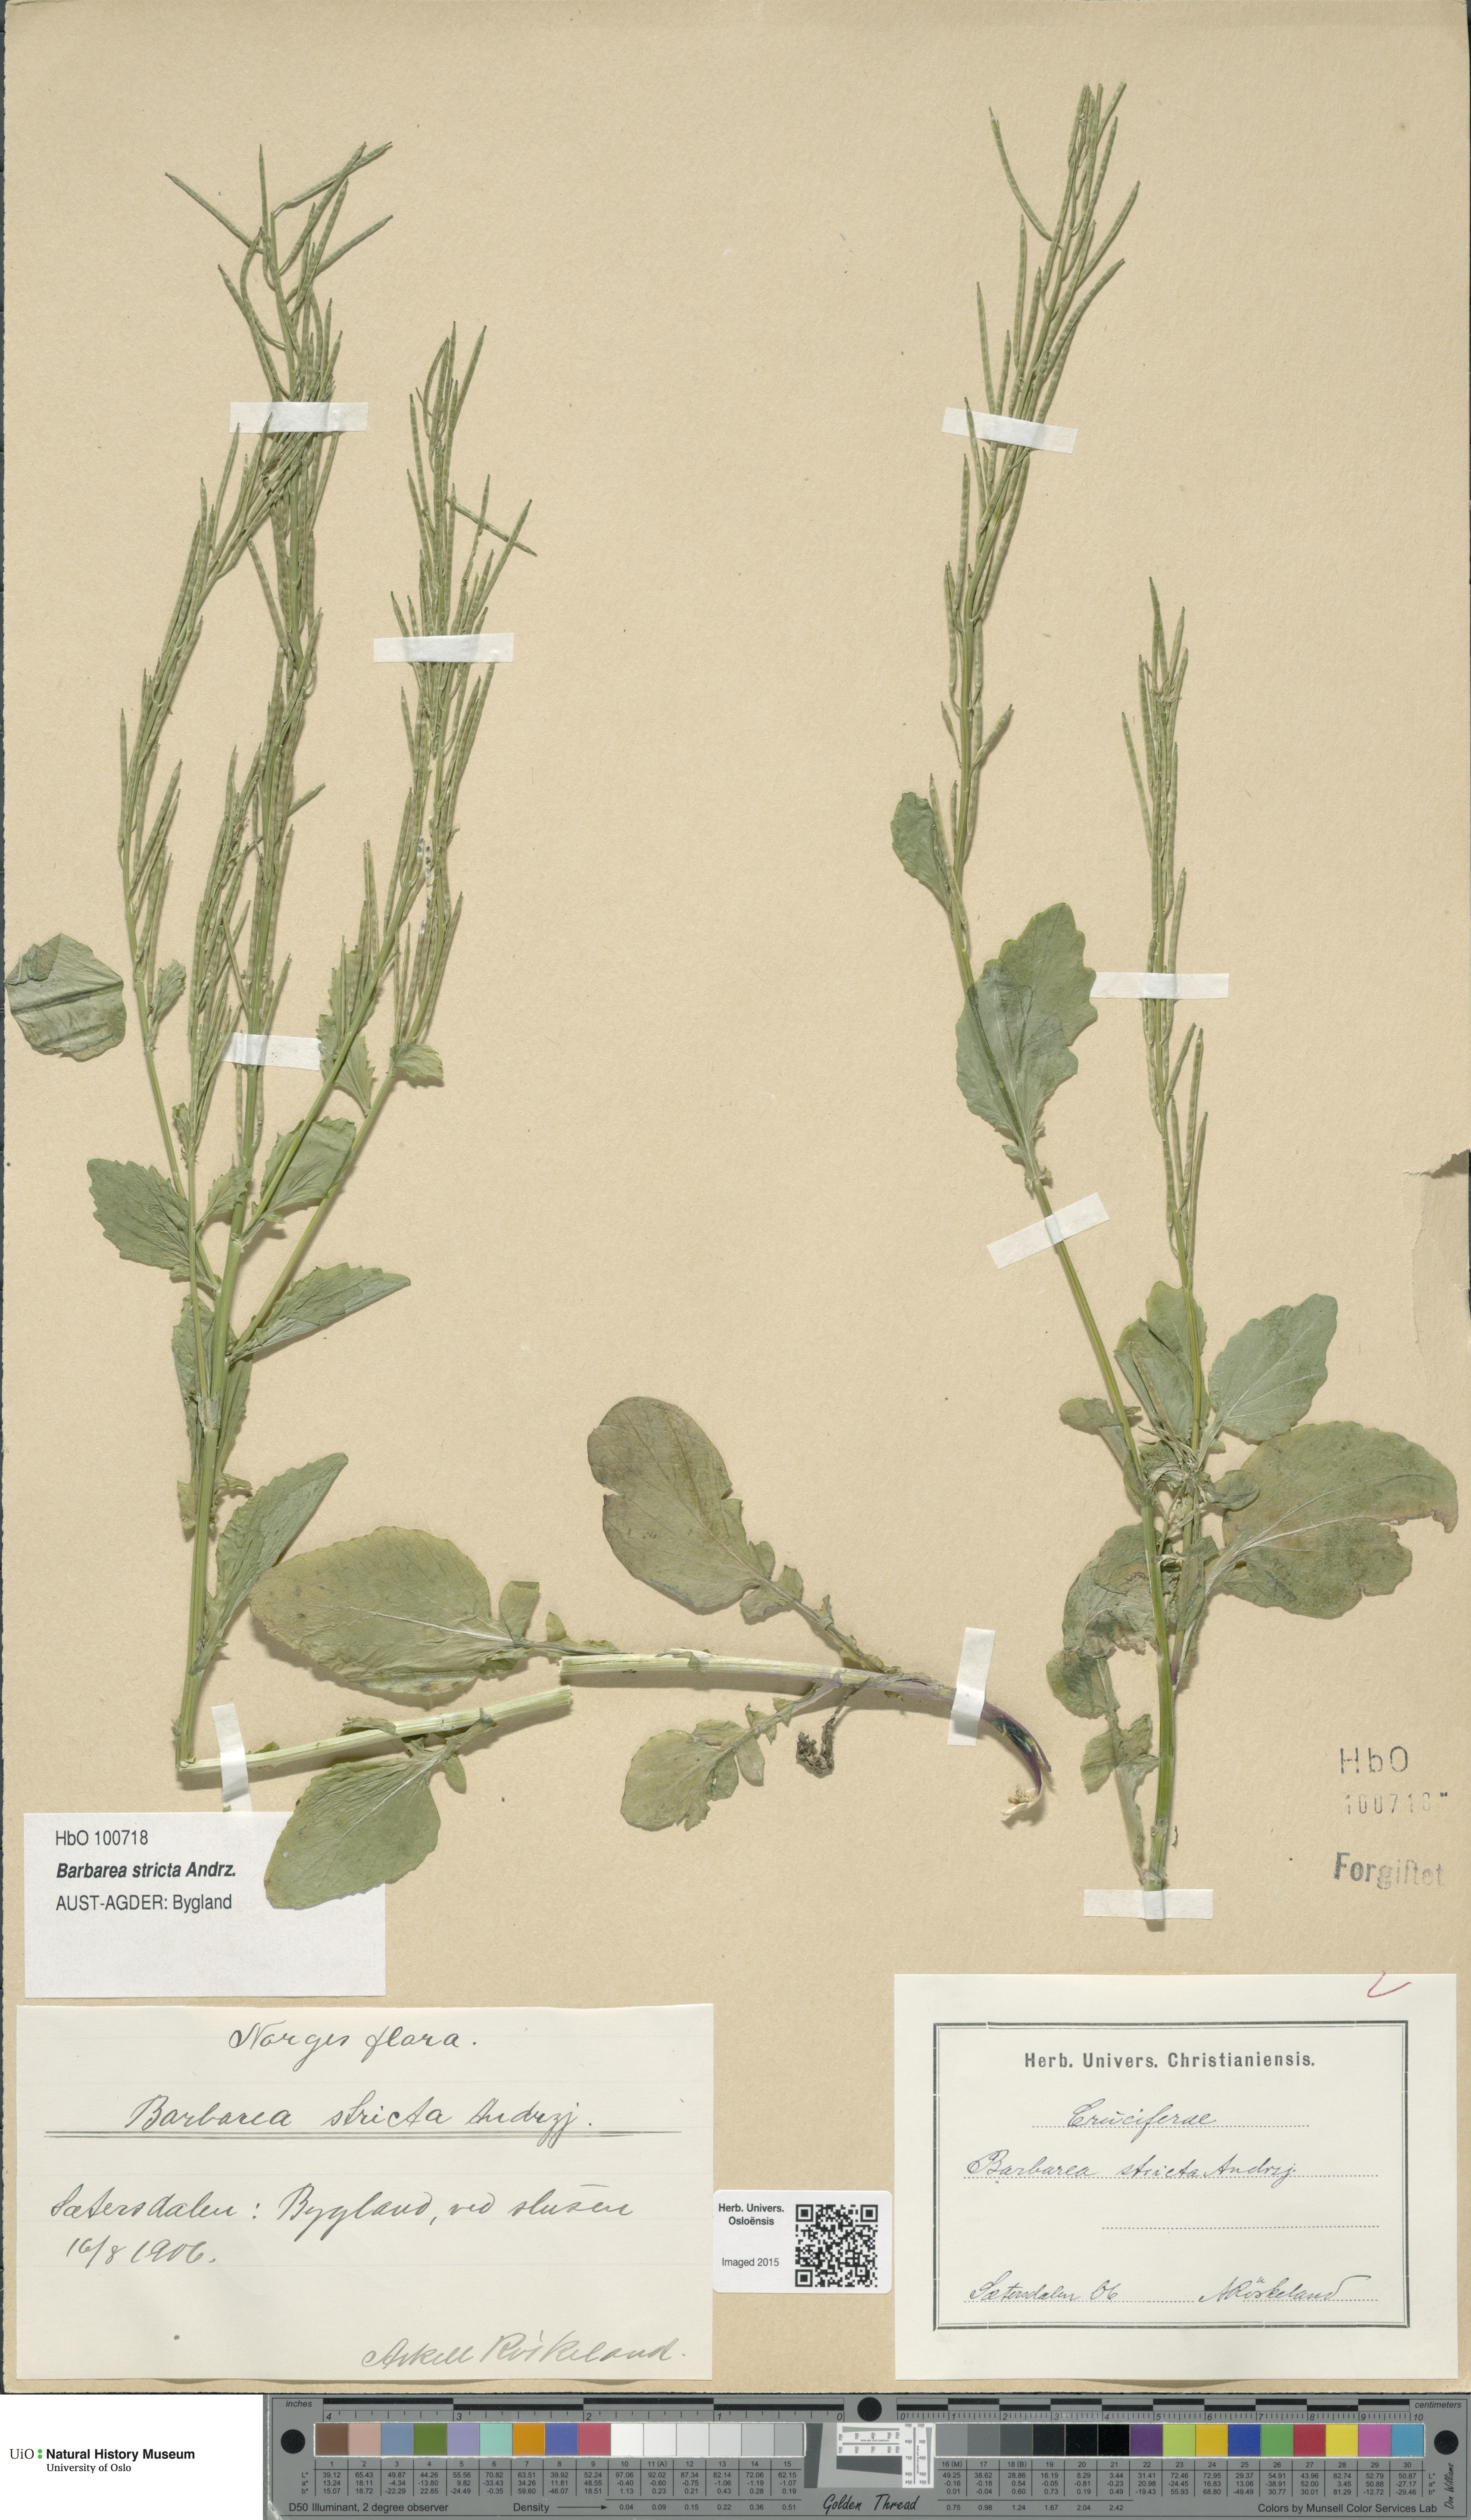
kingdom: Plantae
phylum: Tracheophyta
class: Magnoliopsida
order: Brassicales
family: Brassicaceae
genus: Barbarea
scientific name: Barbarea stricta
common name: Small-flowered winter-cress
